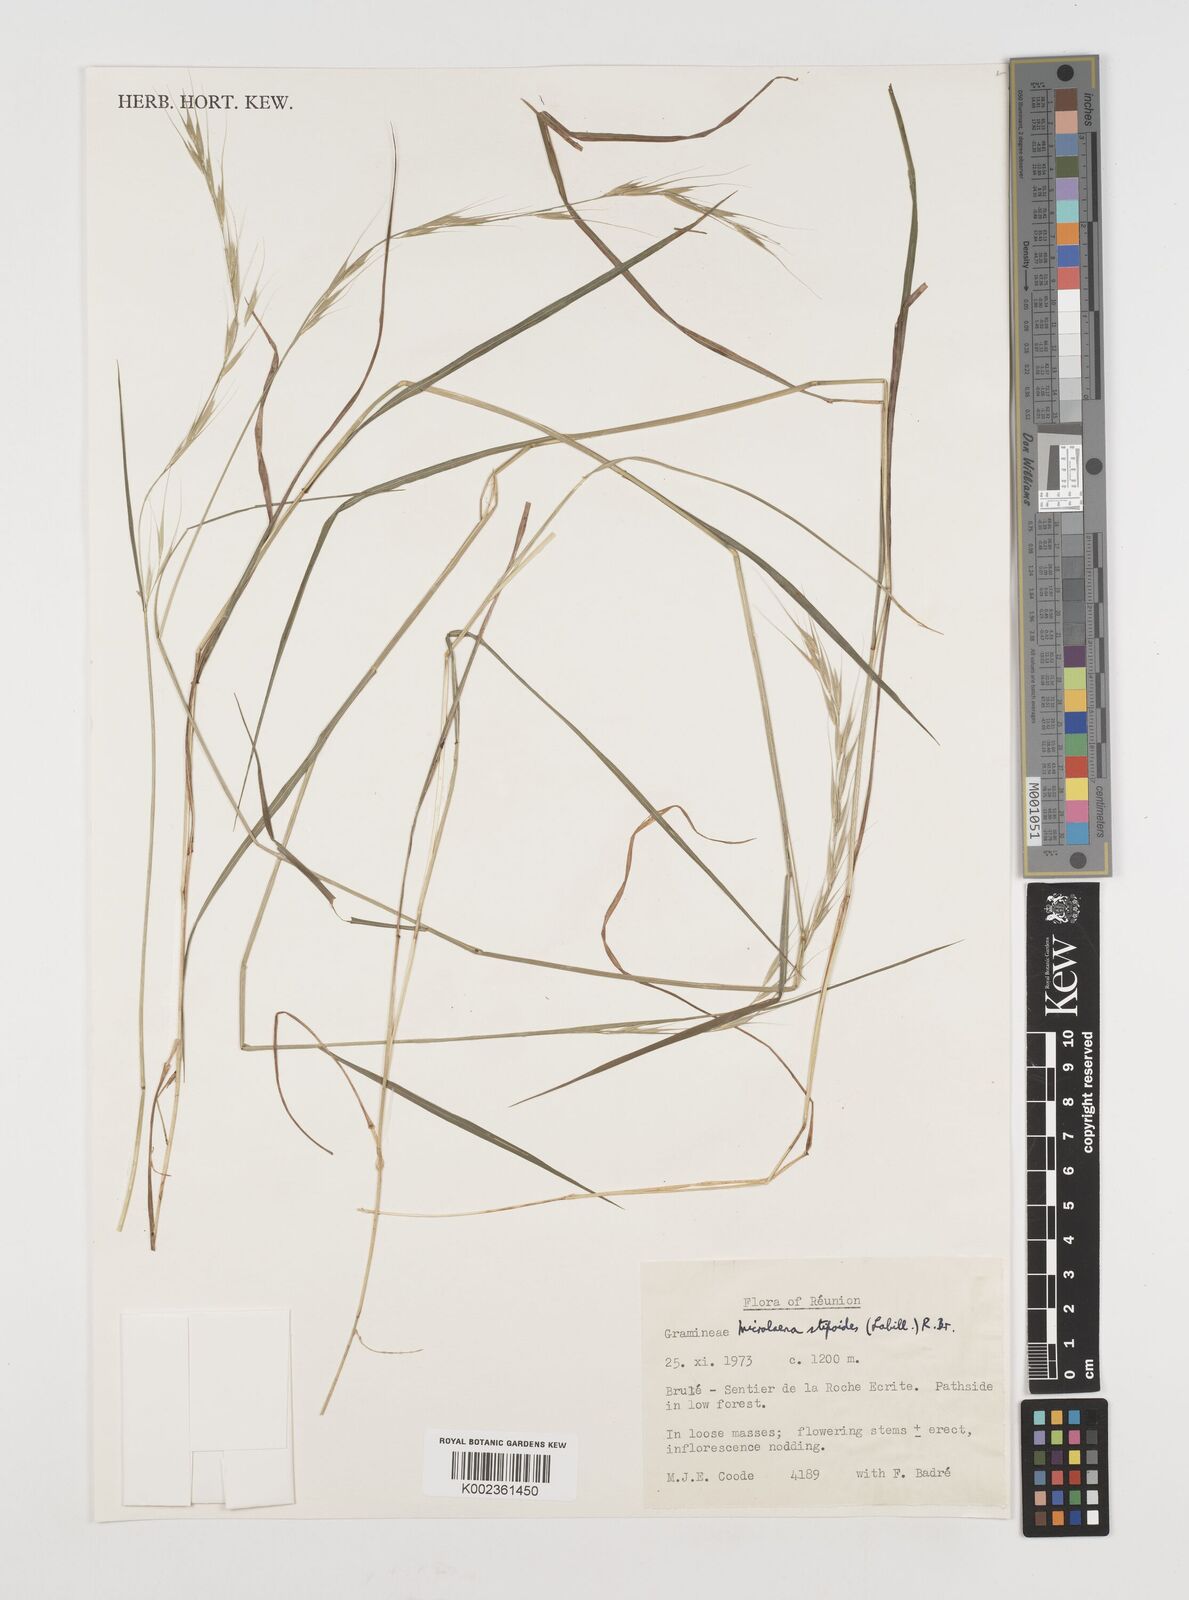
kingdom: Plantae
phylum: Tracheophyta
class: Liliopsida
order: Poales
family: Poaceae
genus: Microlaena
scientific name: Microlaena stipoides
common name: Meadow ricegrass
